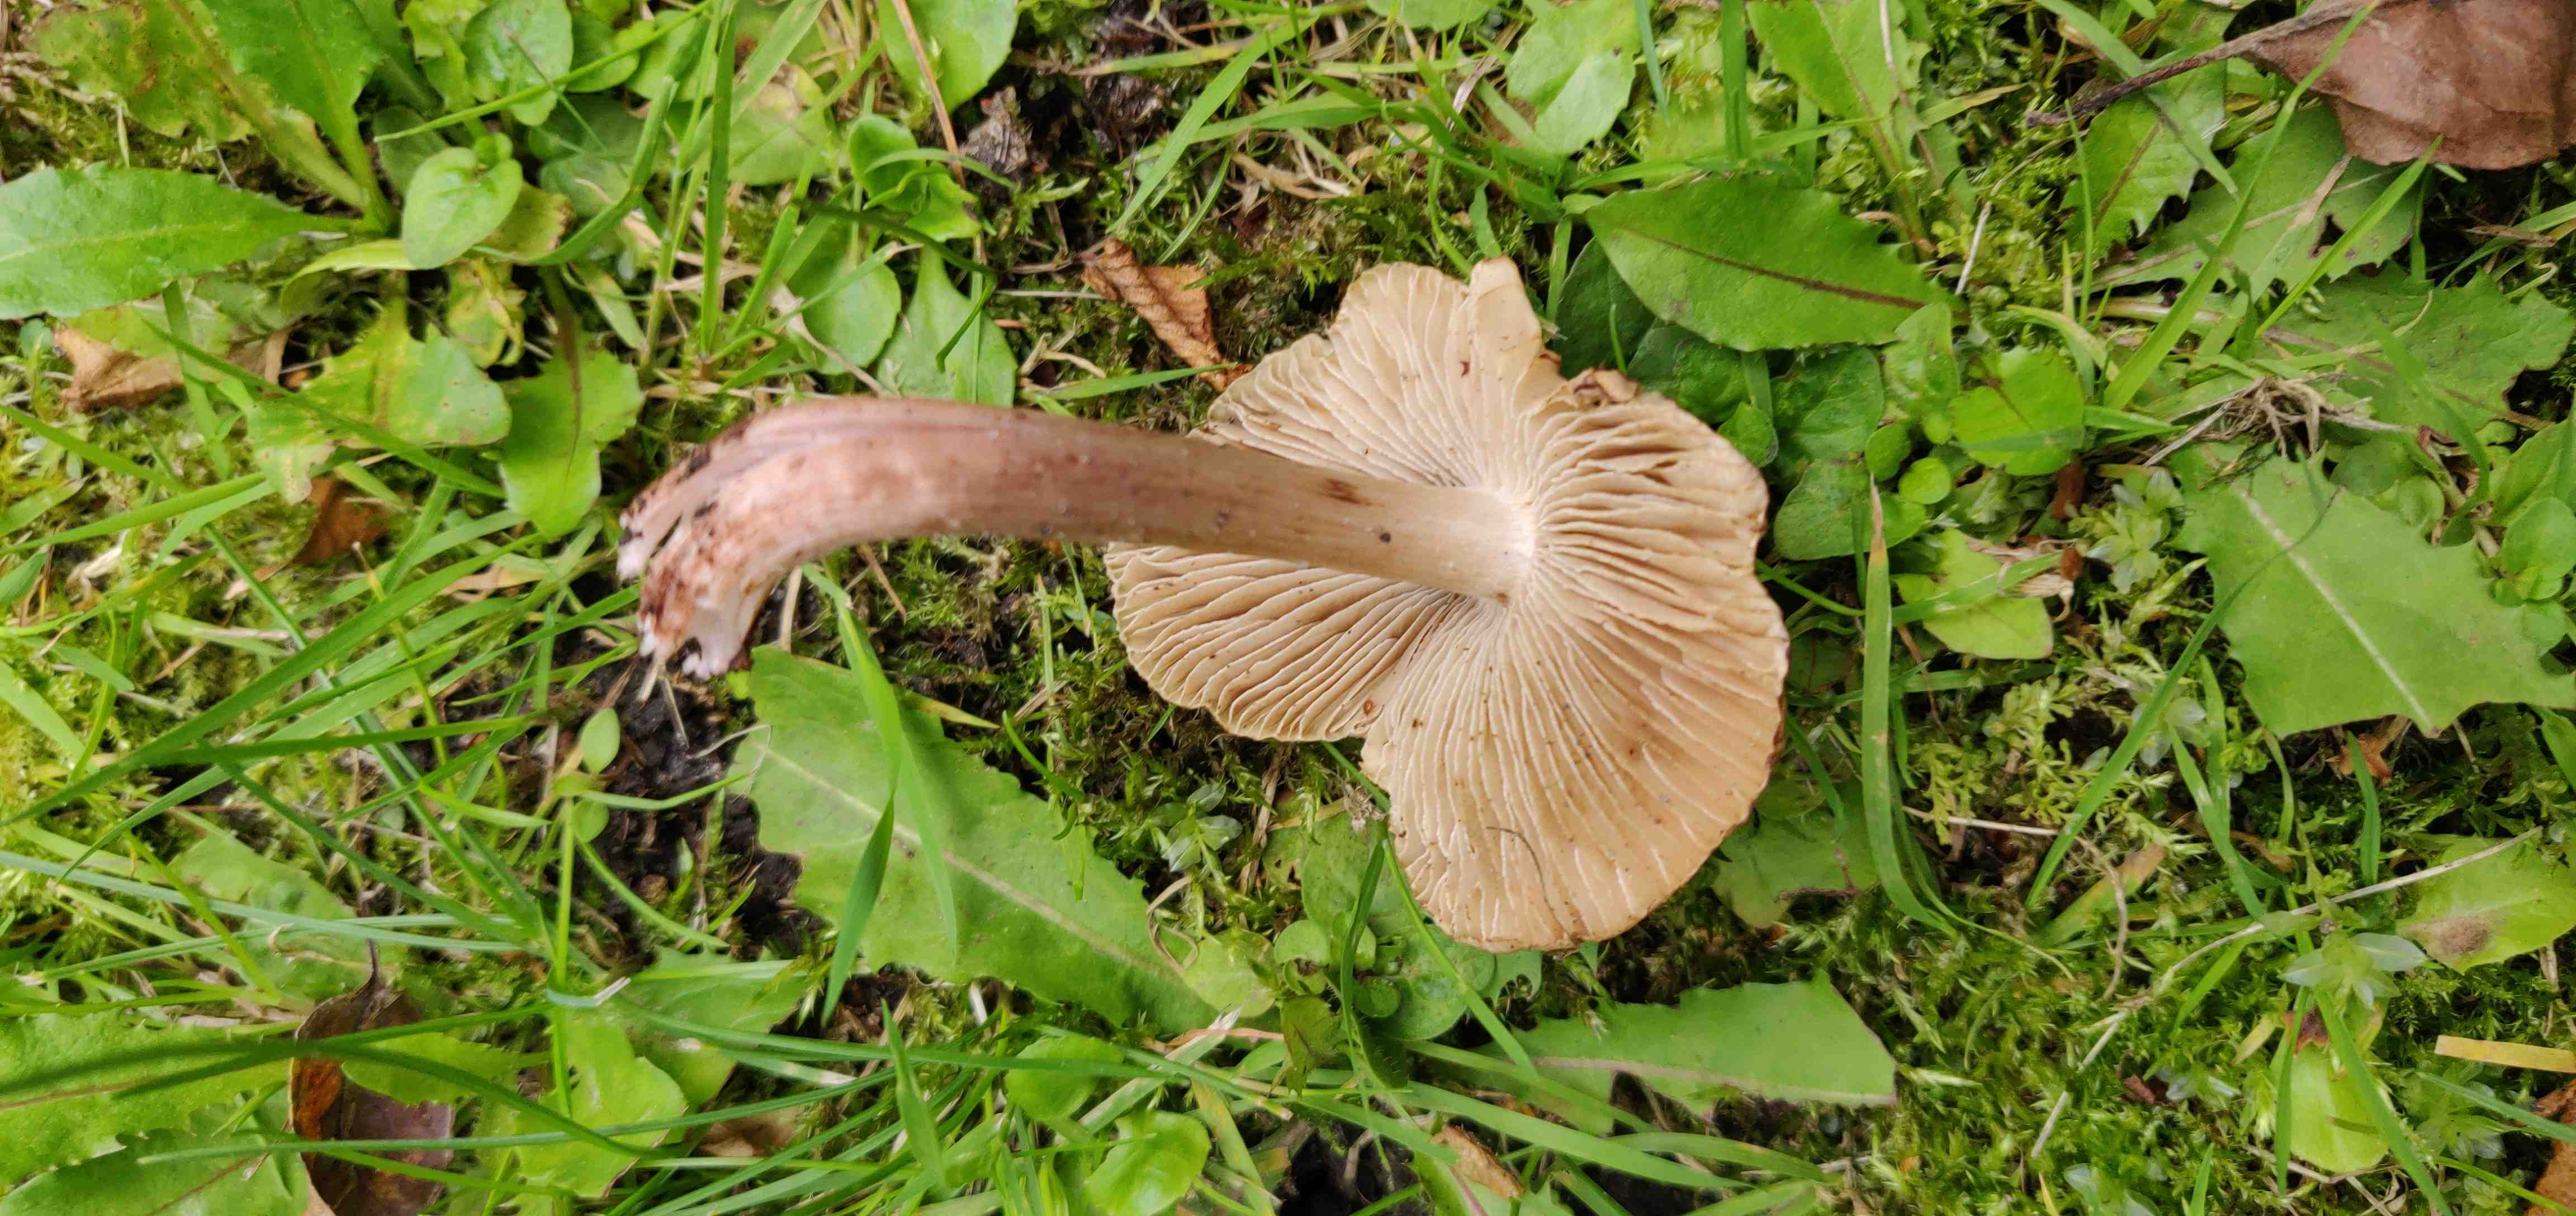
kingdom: Fungi
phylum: Basidiomycota
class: Agaricomycetes
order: Agaricales
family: Inocybaceae
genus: Inosperma
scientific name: Inosperma adaequatum
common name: vinrød trævlhat
